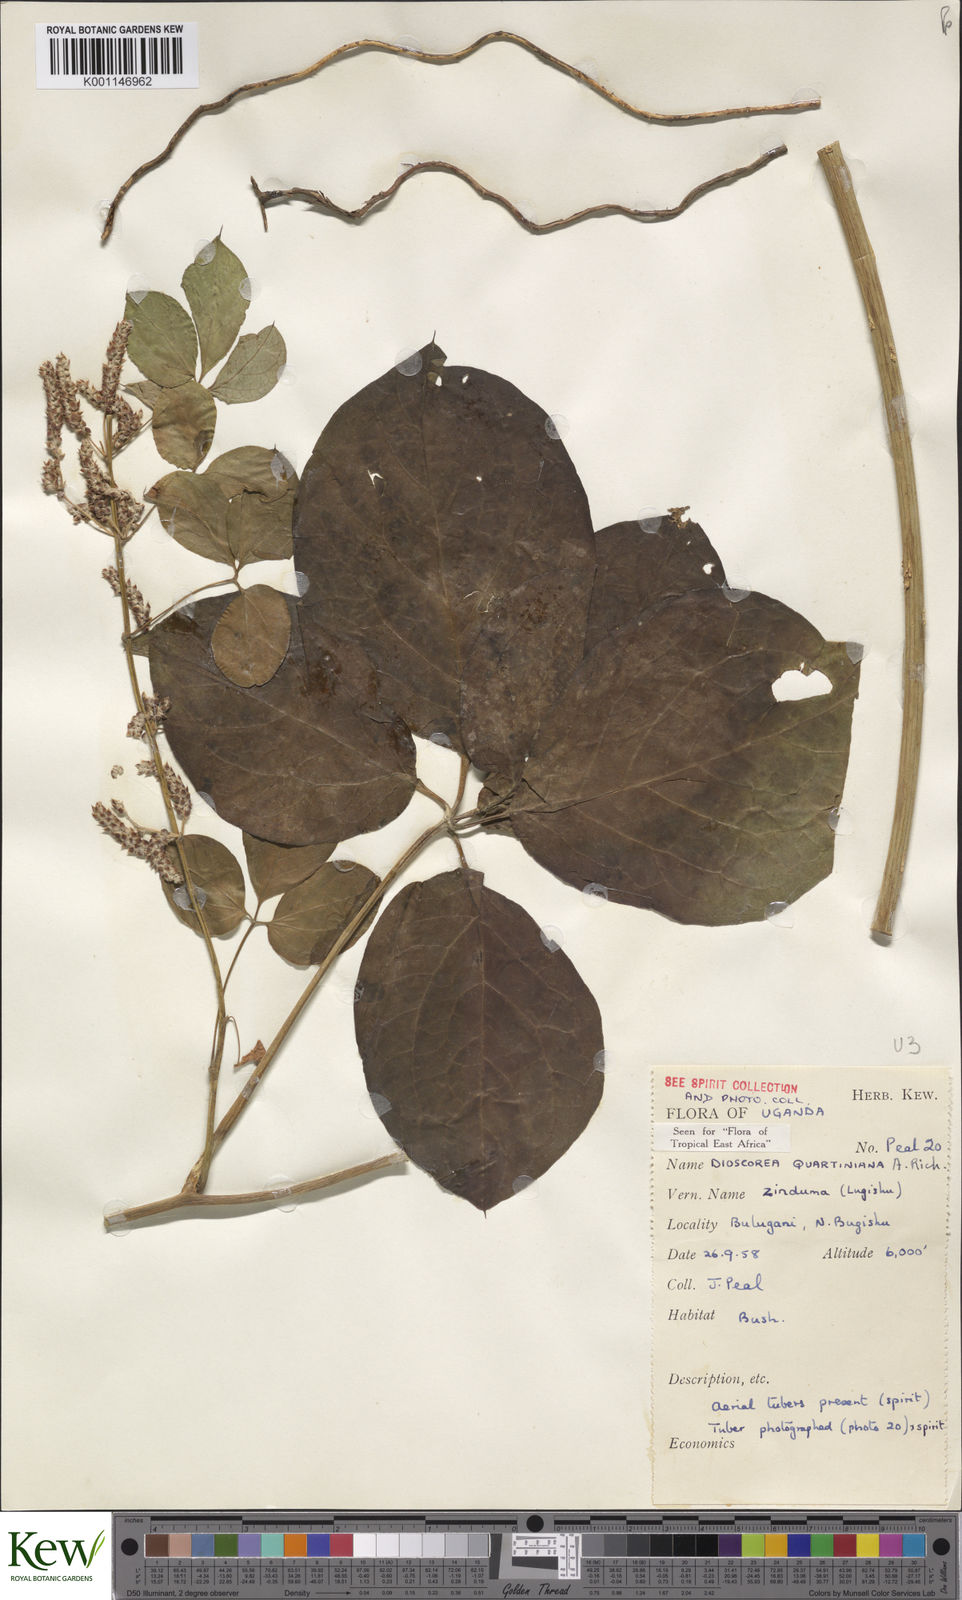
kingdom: Plantae
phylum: Tracheophyta
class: Liliopsida
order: Dioscoreales
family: Dioscoreaceae
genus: Dioscorea
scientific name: Dioscorea quartiniana
